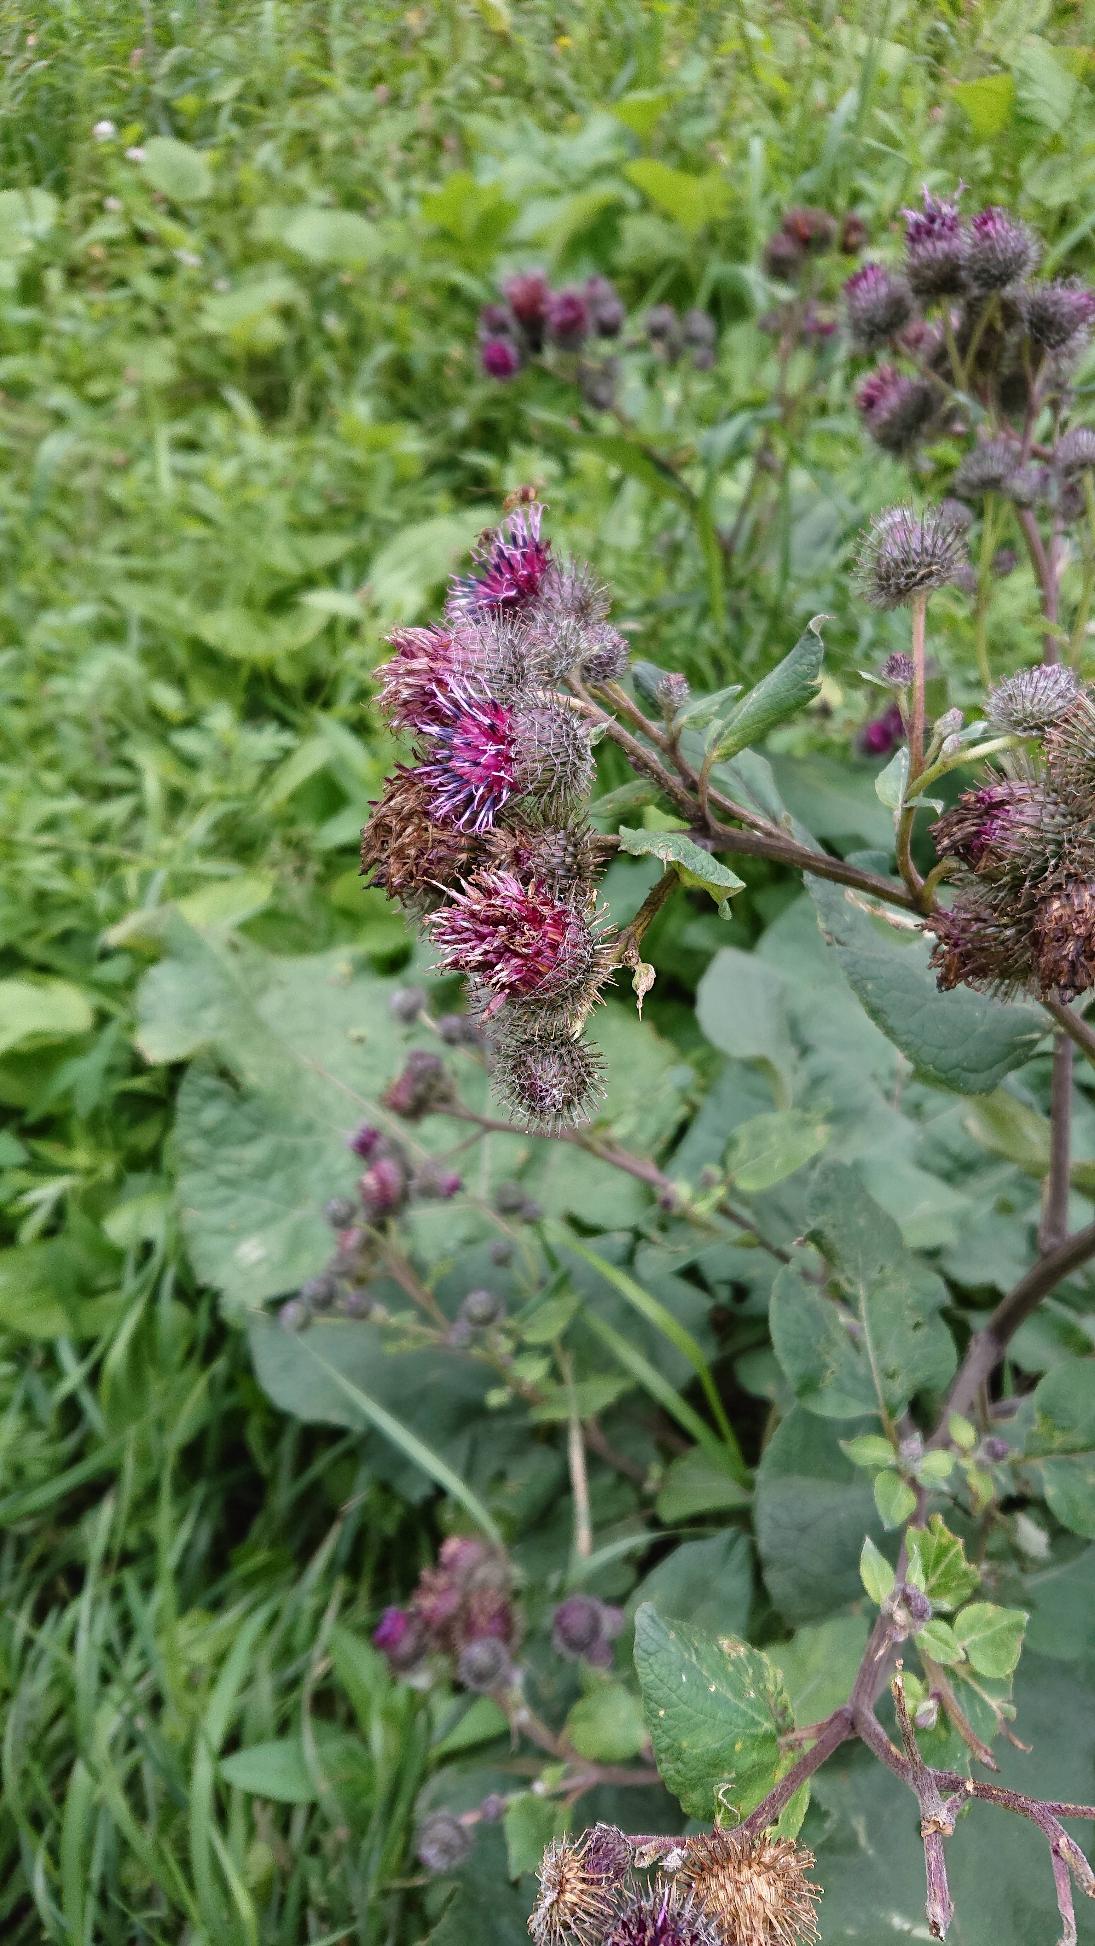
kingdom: Plantae
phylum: Tracheophyta
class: Magnoliopsida
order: Asterales
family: Asteraceae
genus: Arctium
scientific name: Arctium tomentosum
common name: Filtet burre
